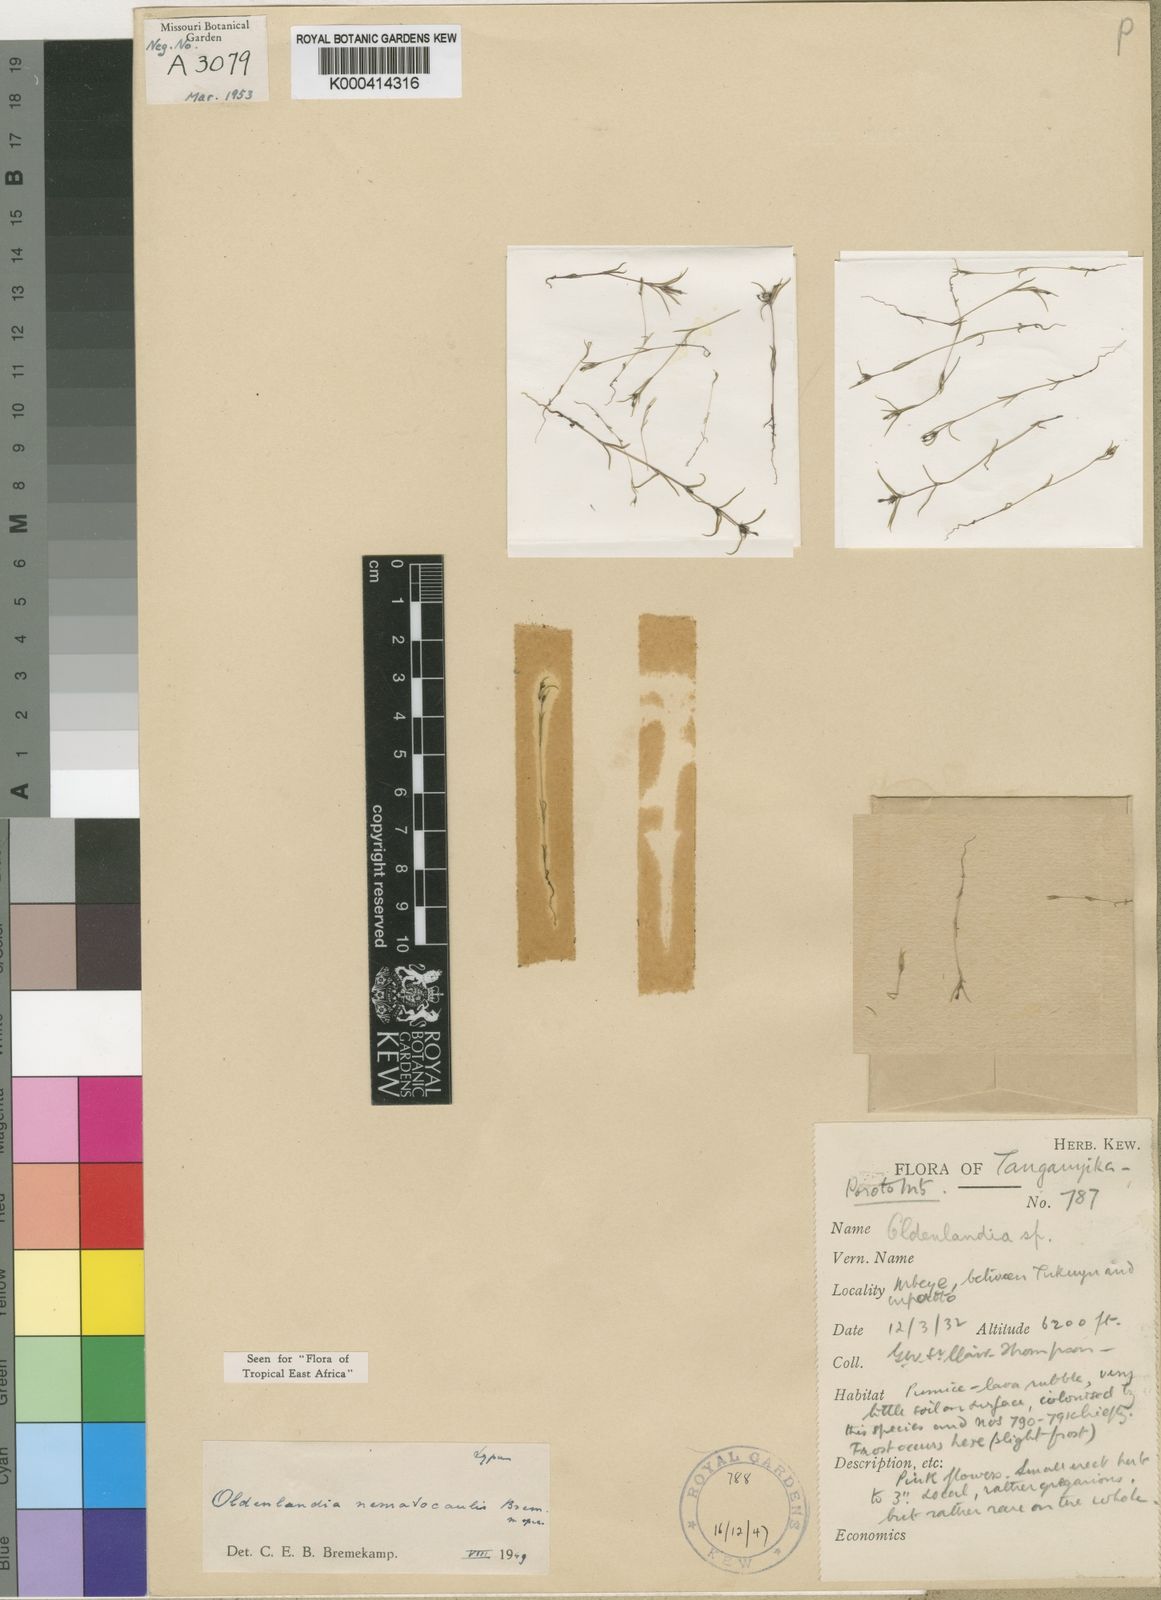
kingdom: Plantae
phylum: Tracheophyta
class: Magnoliopsida
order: Gentianales
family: Rubiaceae
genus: Oldenlandia
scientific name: Oldenlandia nematocaulis
